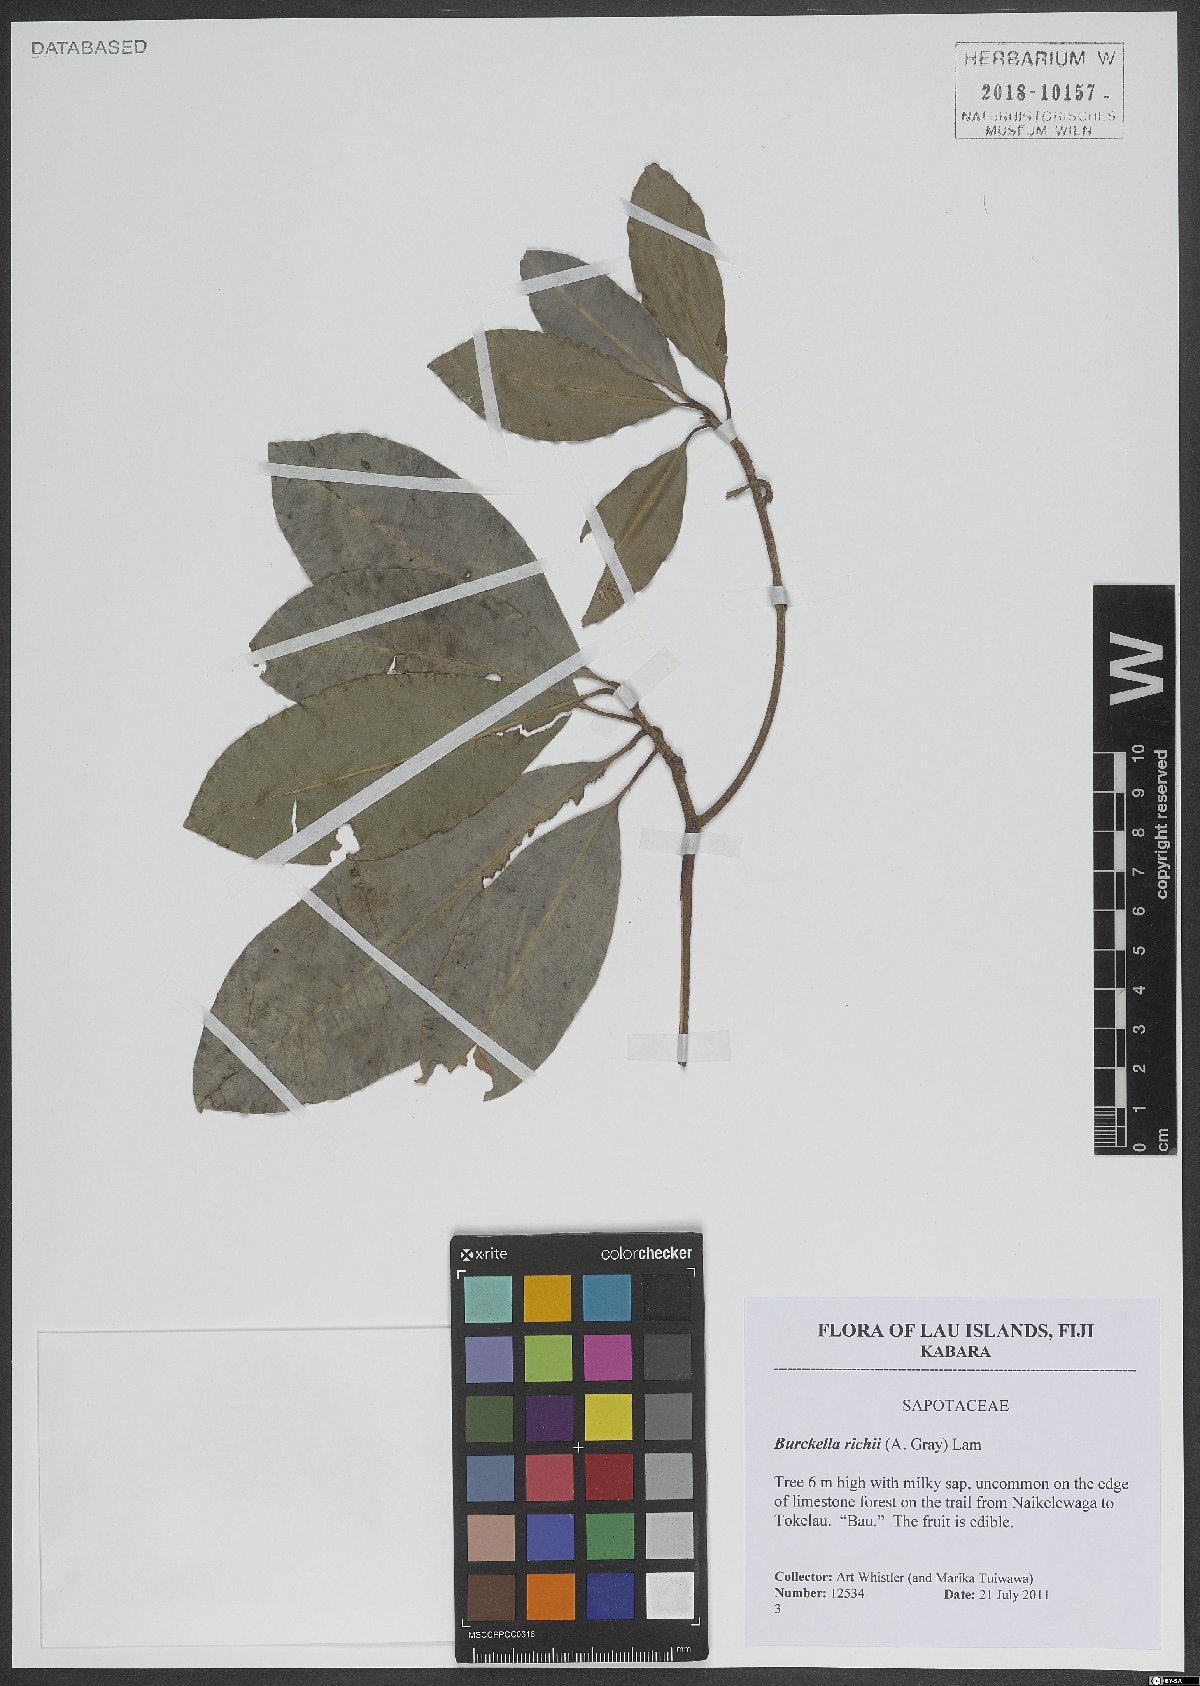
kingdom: Plantae
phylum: Tracheophyta
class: Magnoliopsida
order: Ericales
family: Sapotaceae
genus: Burckella
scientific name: Burckella richii
